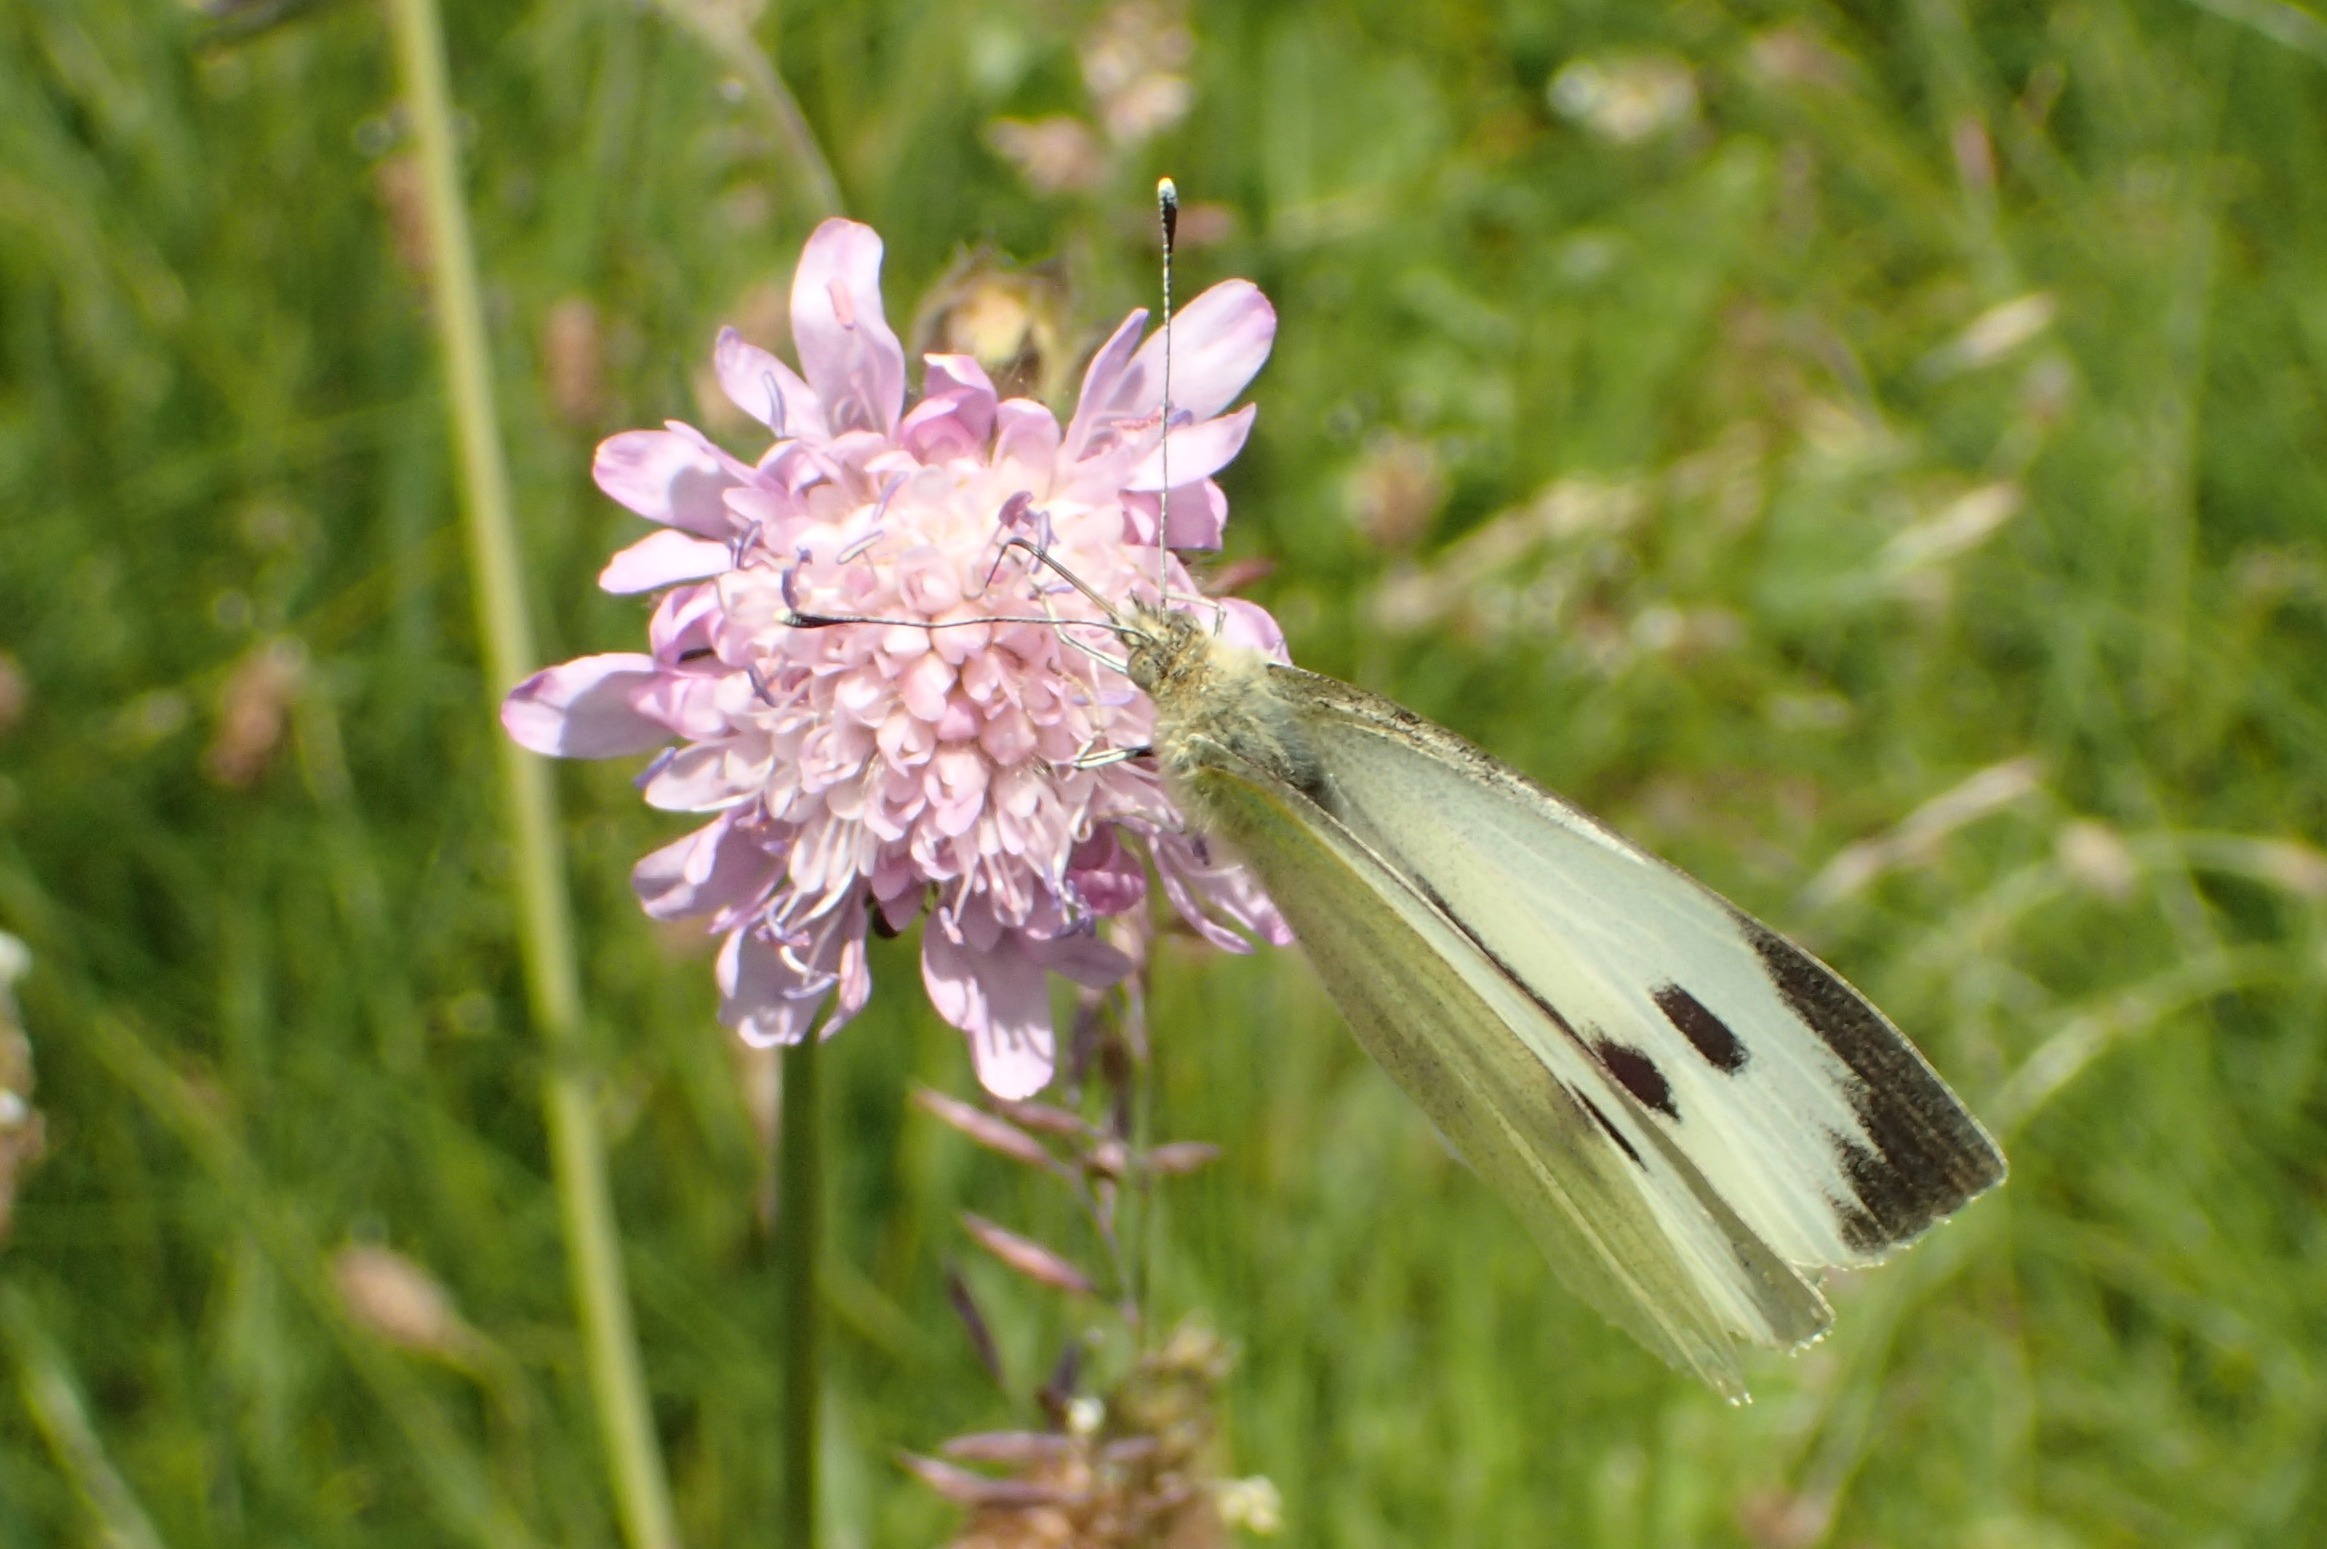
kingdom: Animalia
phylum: Arthropoda
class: Insecta
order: Lepidoptera
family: Pieridae
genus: Pieris
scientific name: Pieris brassicae
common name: Stor kålsommerfugl
